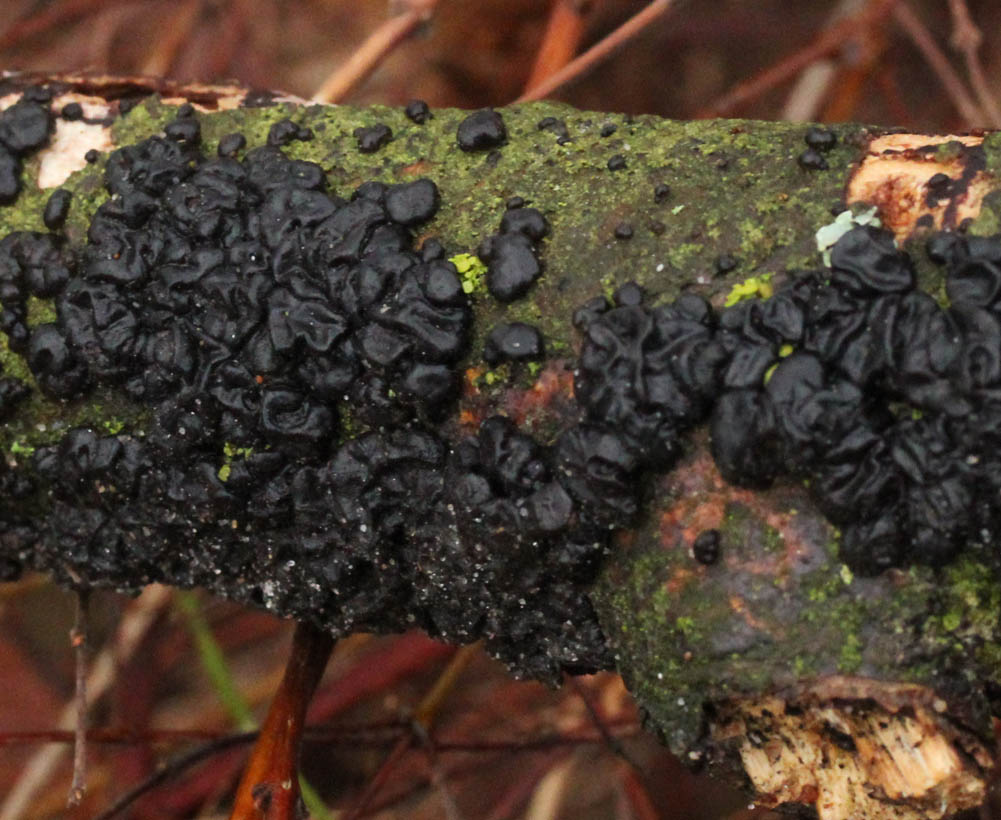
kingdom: Fungi
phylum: Basidiomycota
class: Agaricomycetes
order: Auriculariales
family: Auriculariaceae
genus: Exidia
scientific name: Exidia nigricans
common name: almindelig bævretop
